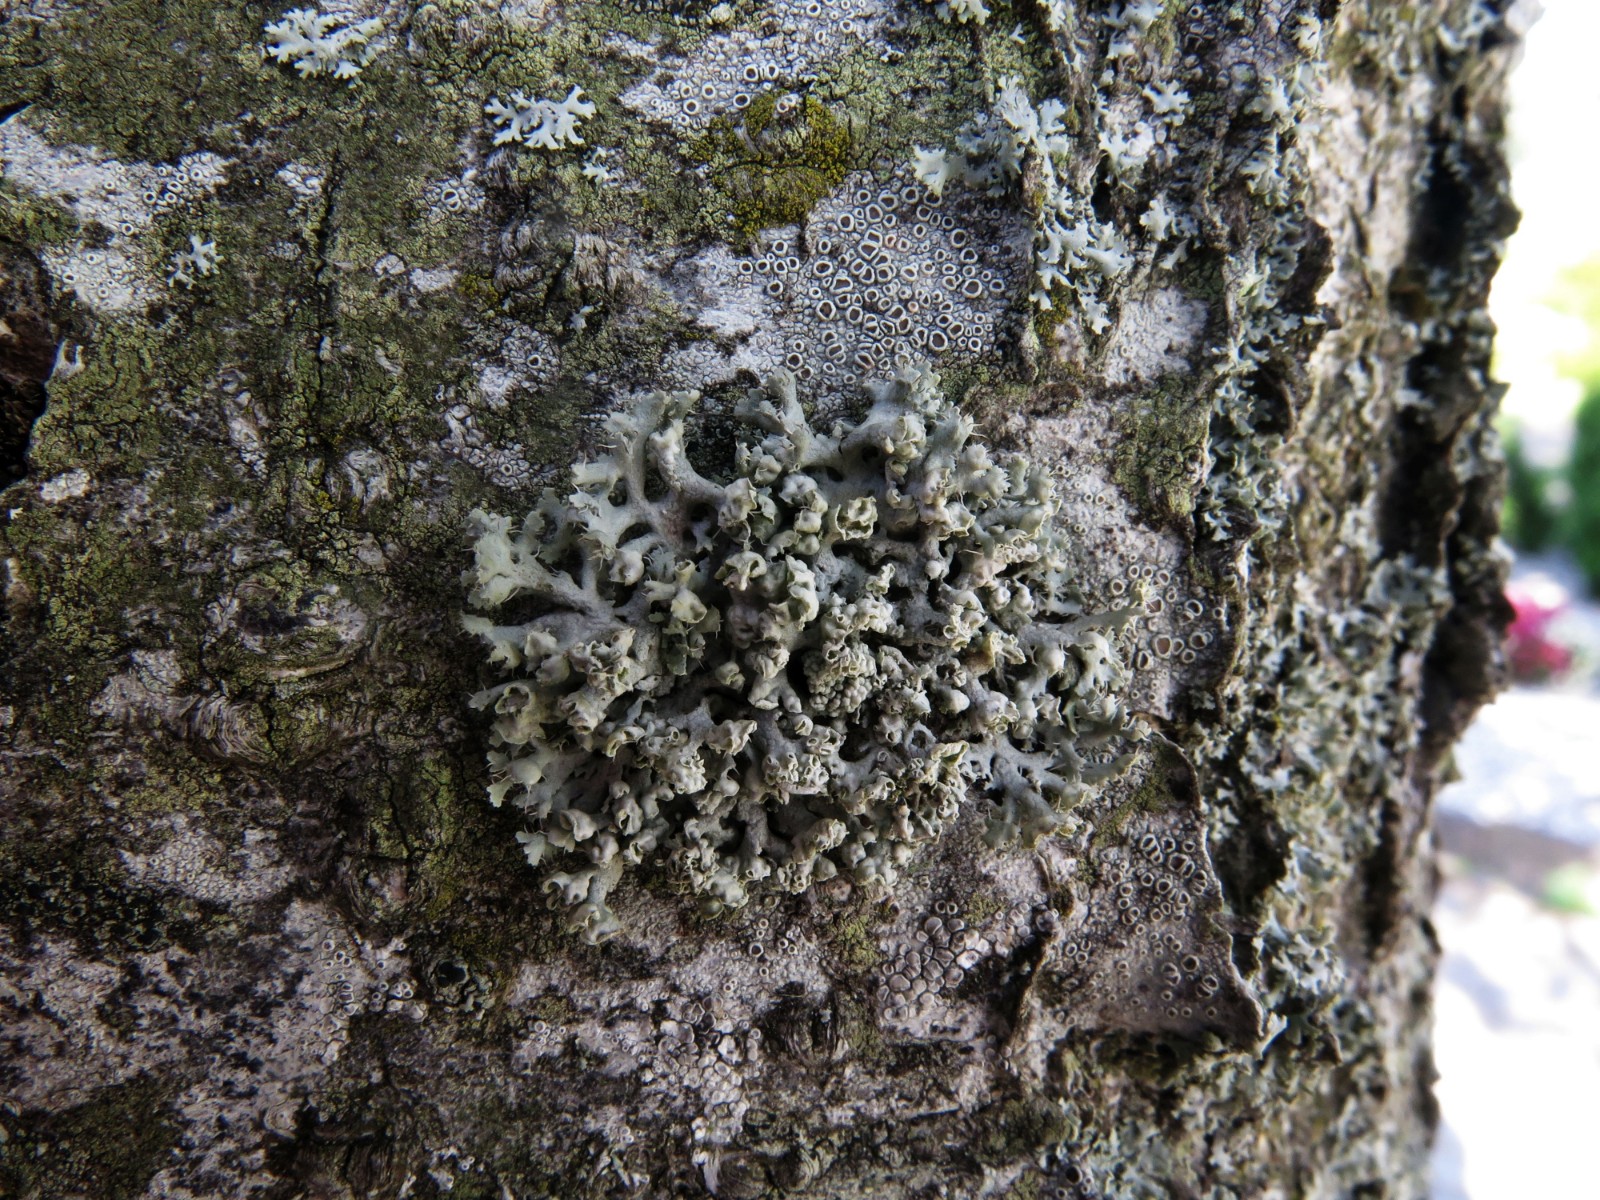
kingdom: Fungi
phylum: Ascomycota
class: Lecanoromycetes
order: Caliciales
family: Physciaceae
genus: Physcia
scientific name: Physcia adscendens
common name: hætte-rosetlav
